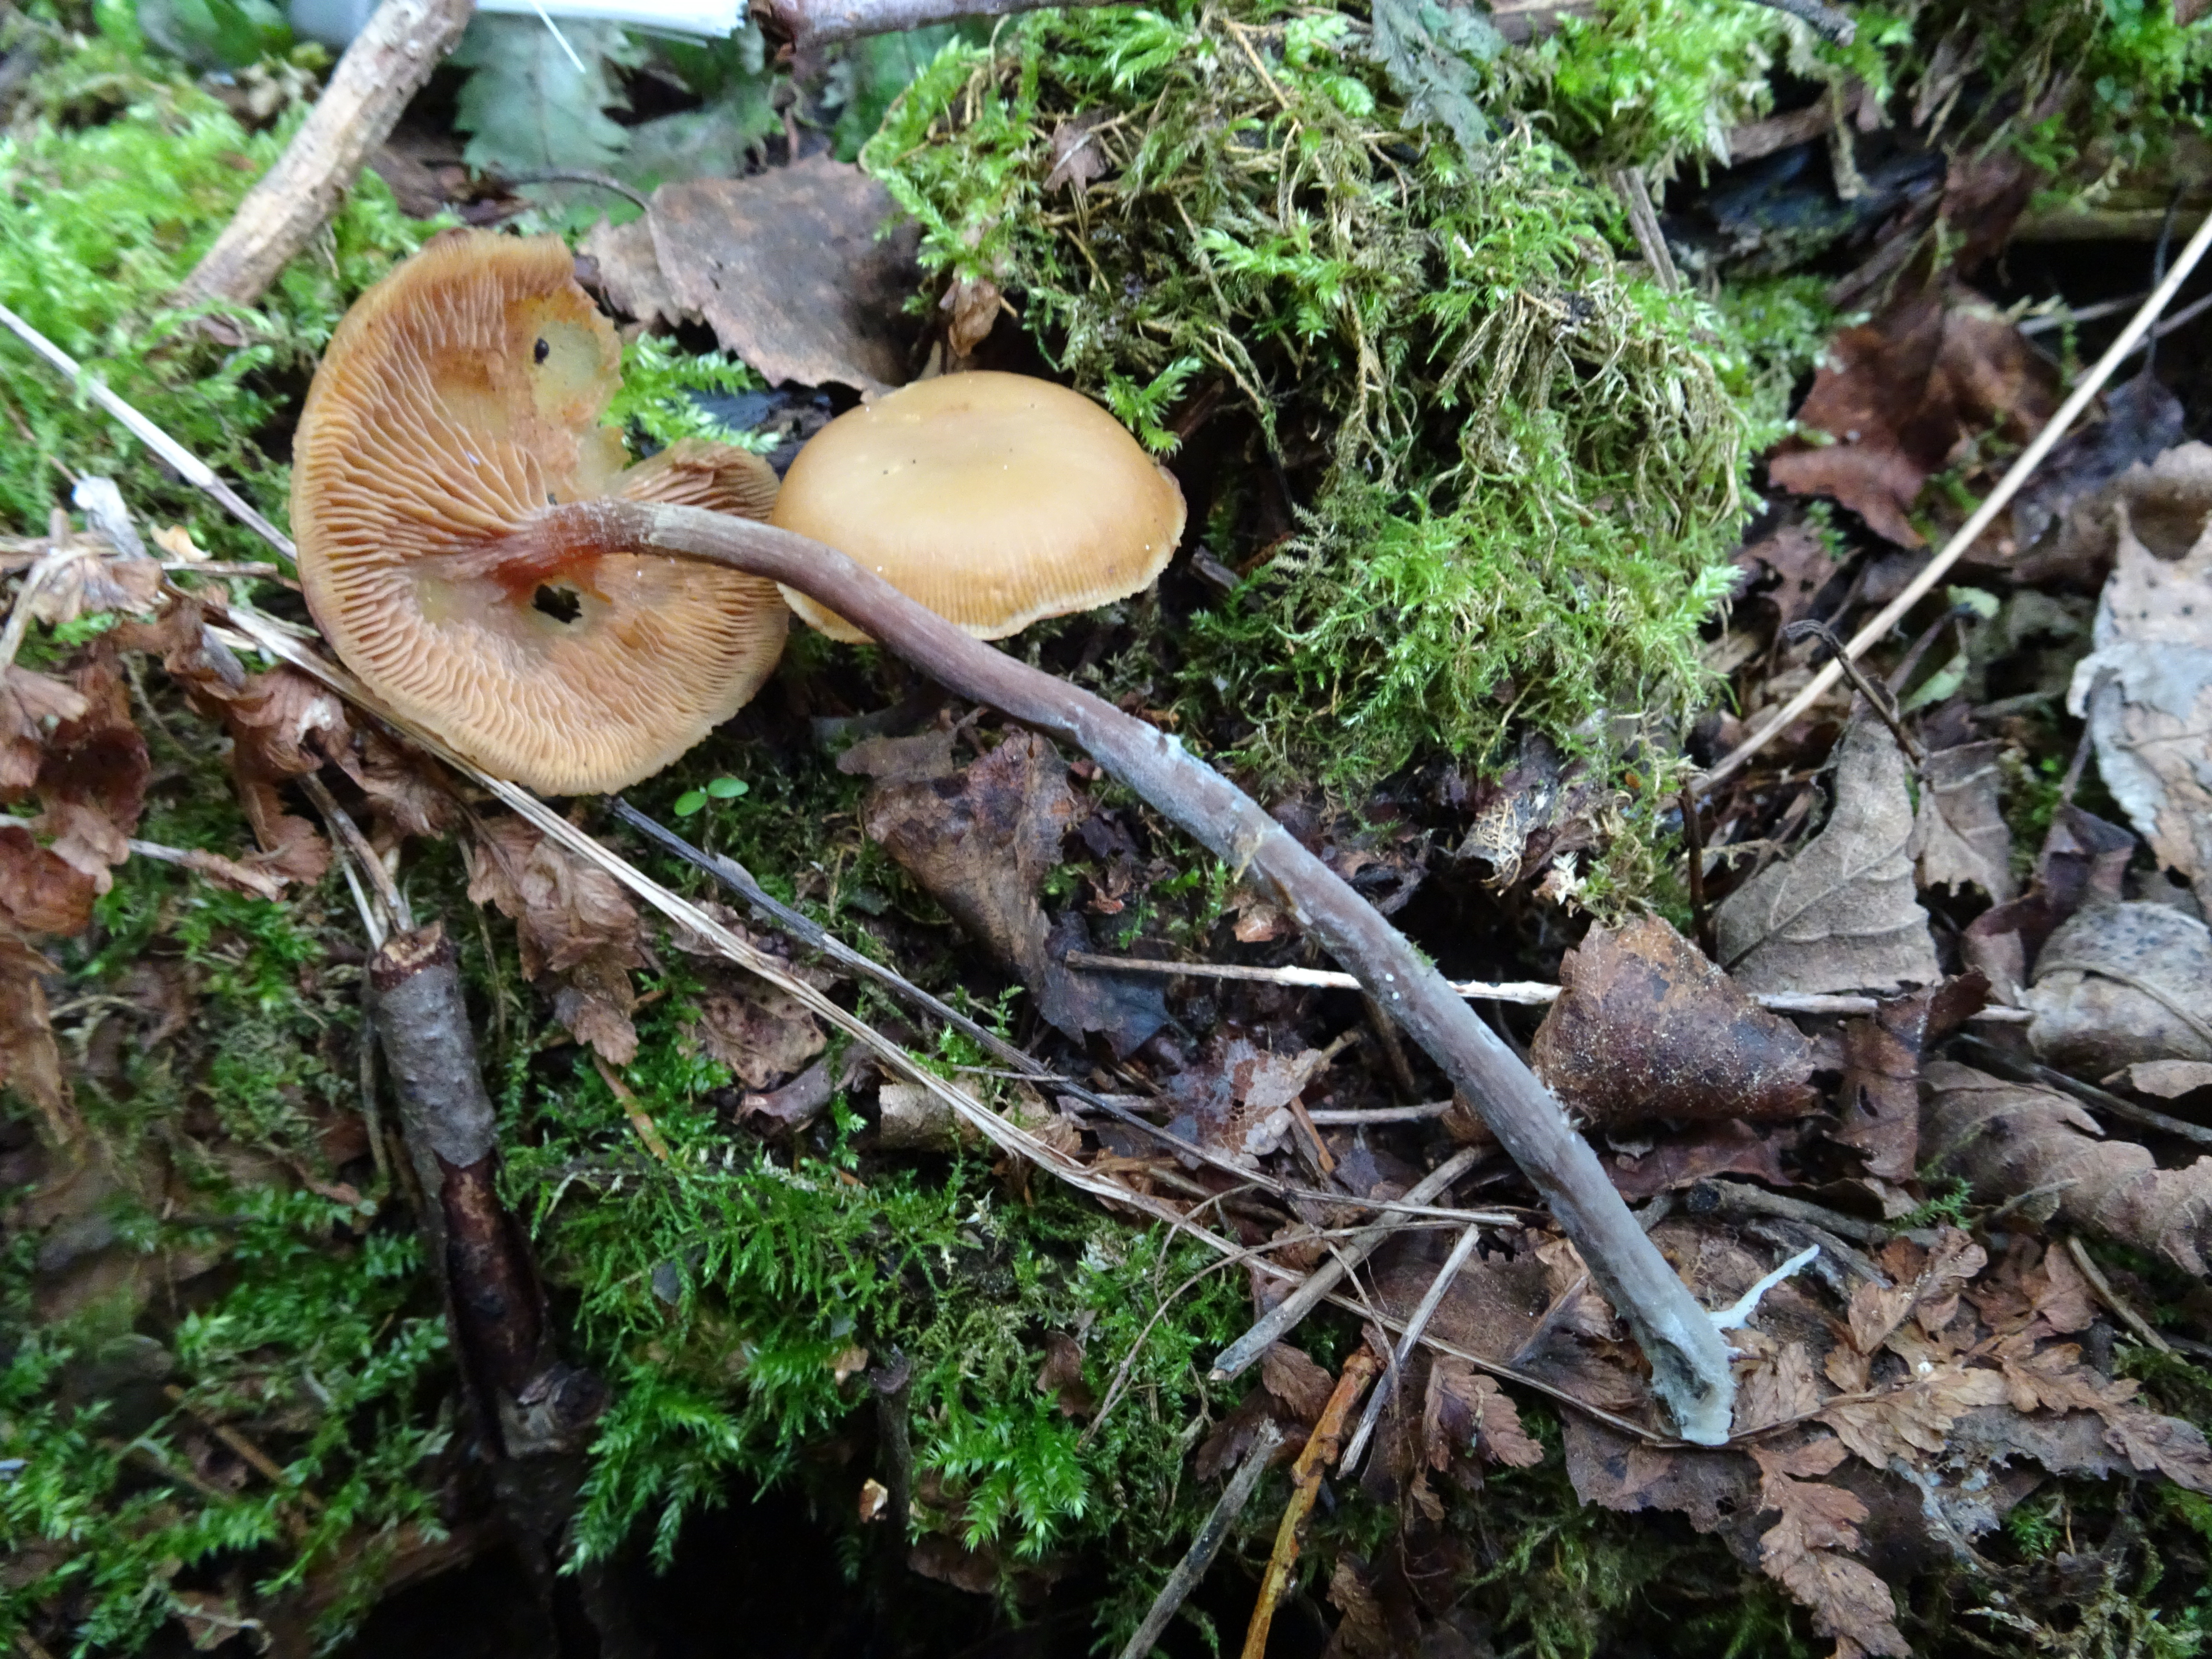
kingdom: Fungi
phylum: Basidiomycota
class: Agaricomycetes
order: Agaricales
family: Strophariaceae
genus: Pholiota
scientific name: Pholiota lignicola
